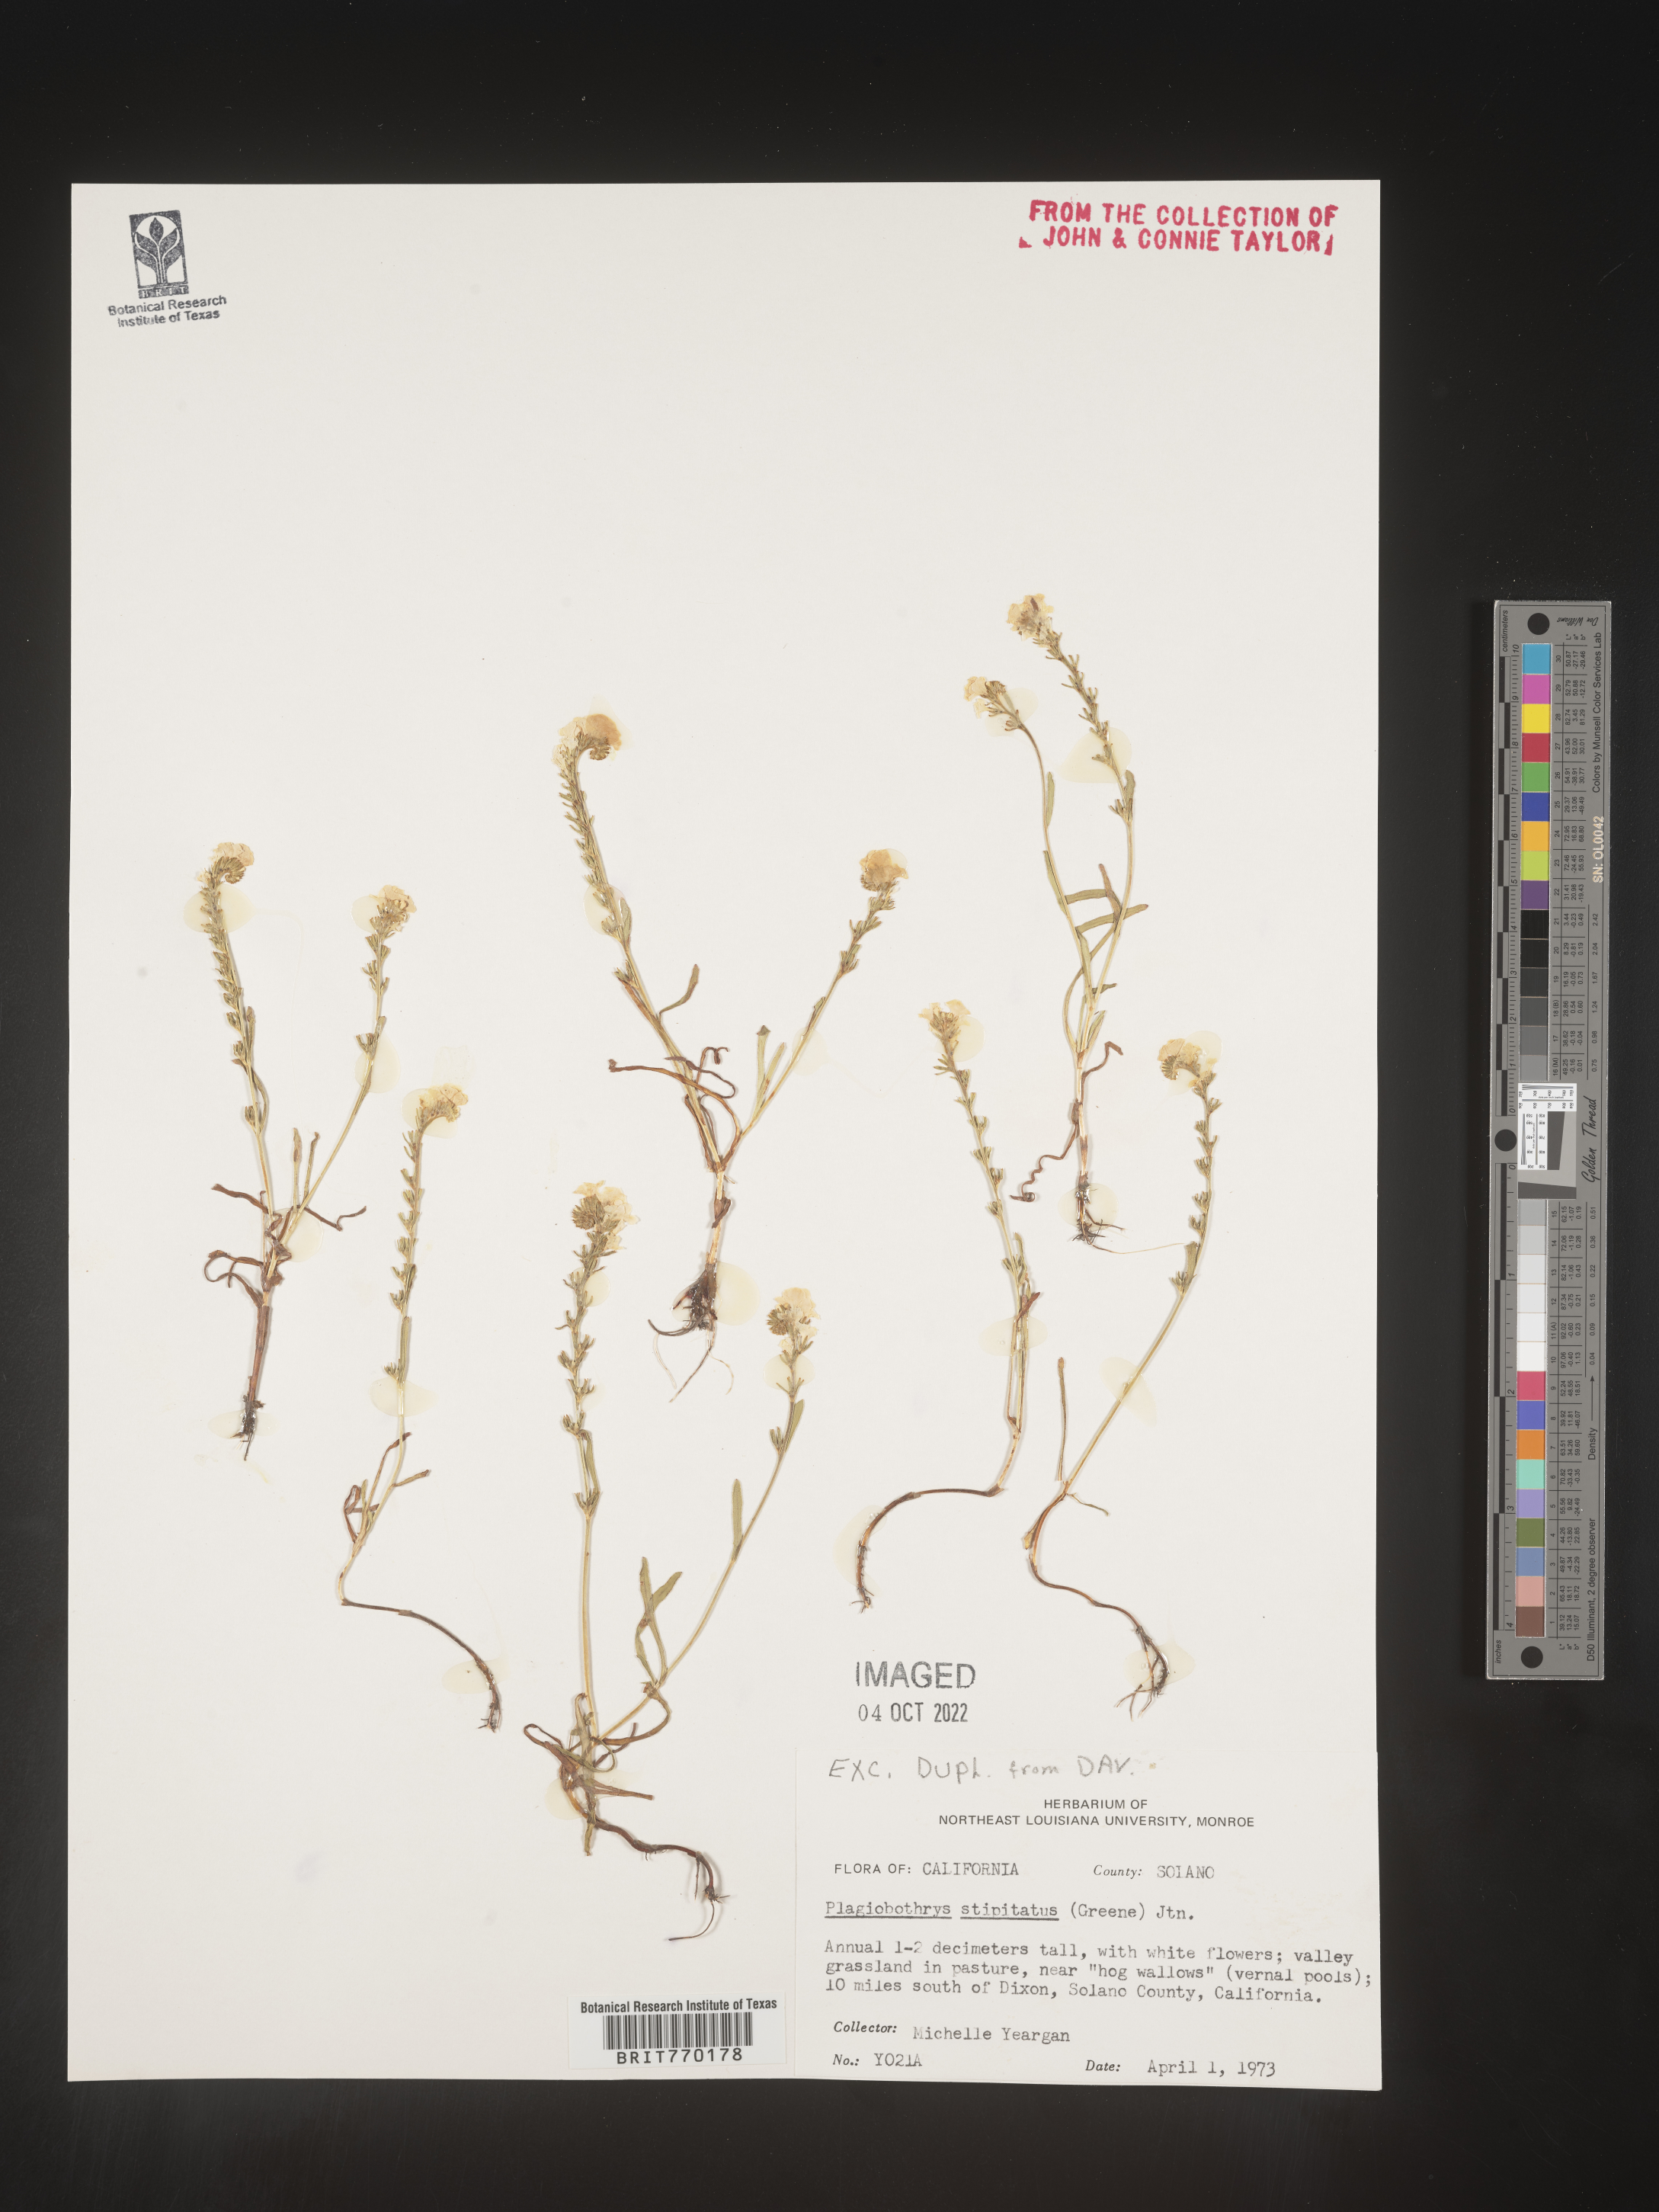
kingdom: Plantae
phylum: Tracheophyta
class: Magnoliopsida
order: Boraginales
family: Boraginaceae
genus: Plagiobothrys
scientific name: Plagiobothrys
